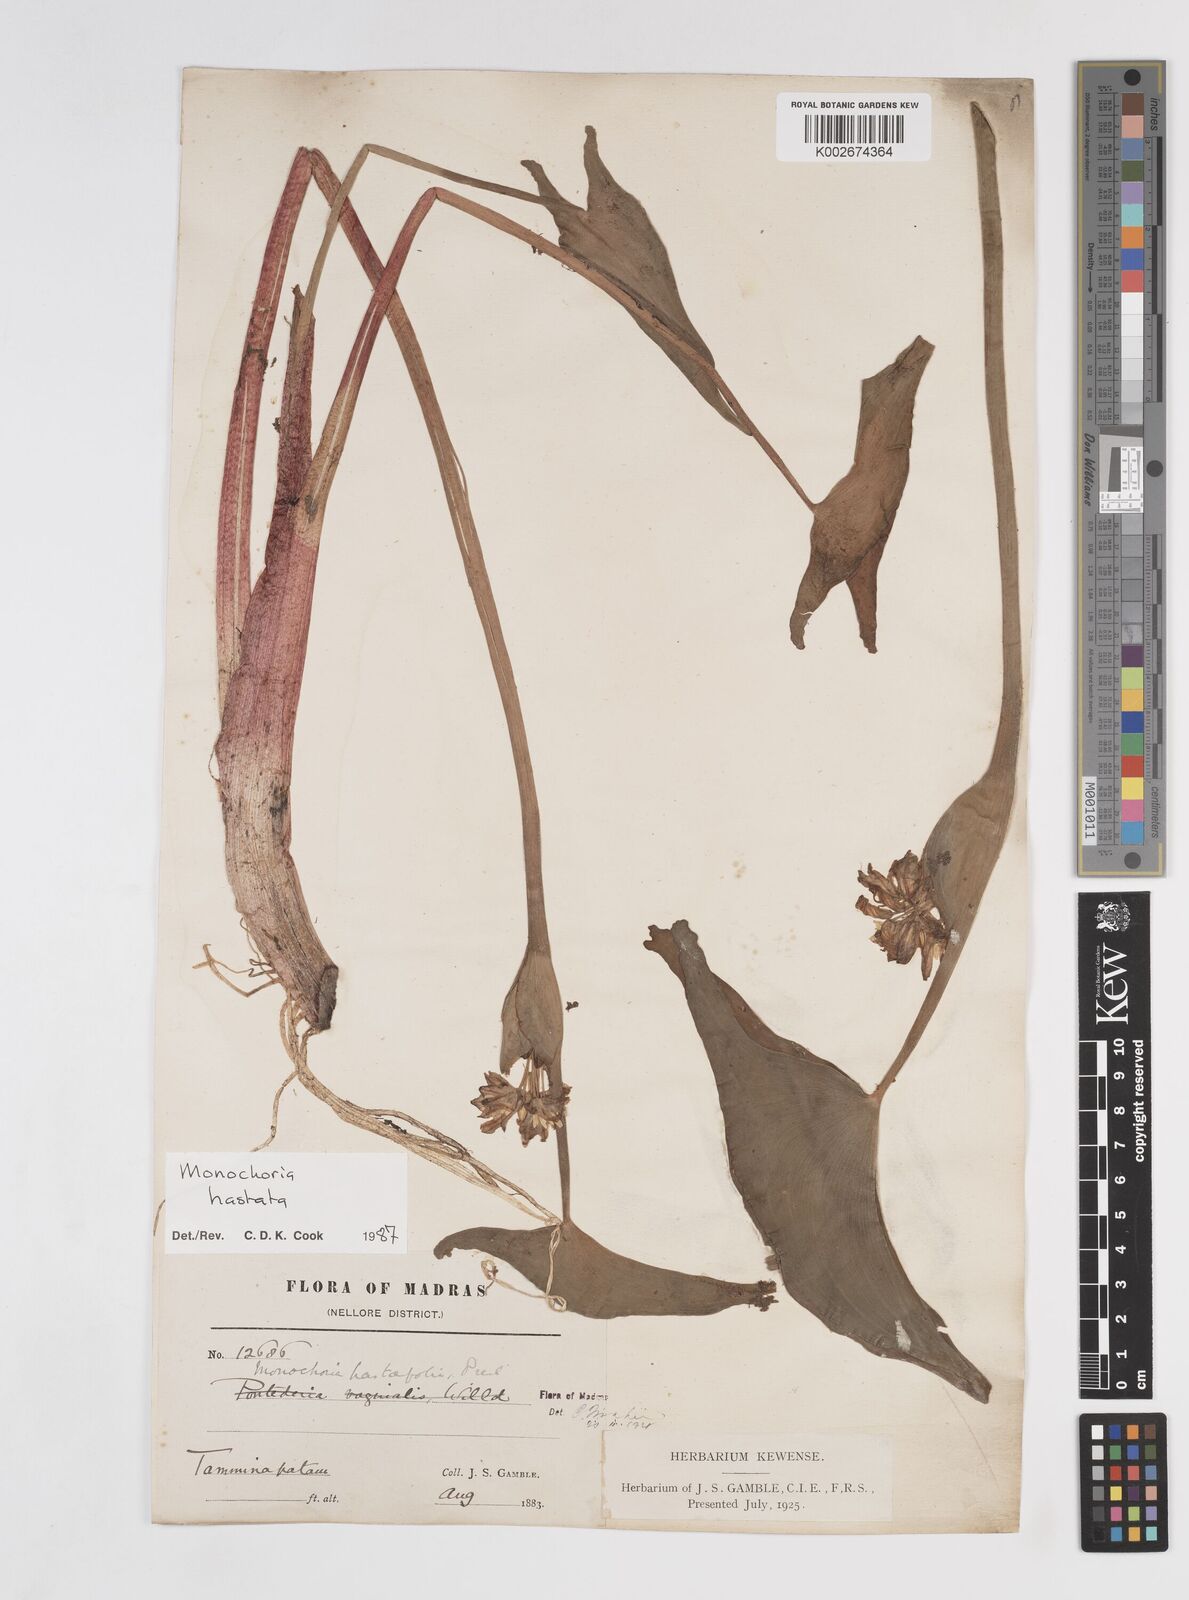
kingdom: Plantae
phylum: Tracheophyta
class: Liliopsida
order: Commelinales
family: Pontederiaceae
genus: Pontederia
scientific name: Pontederia hastata
